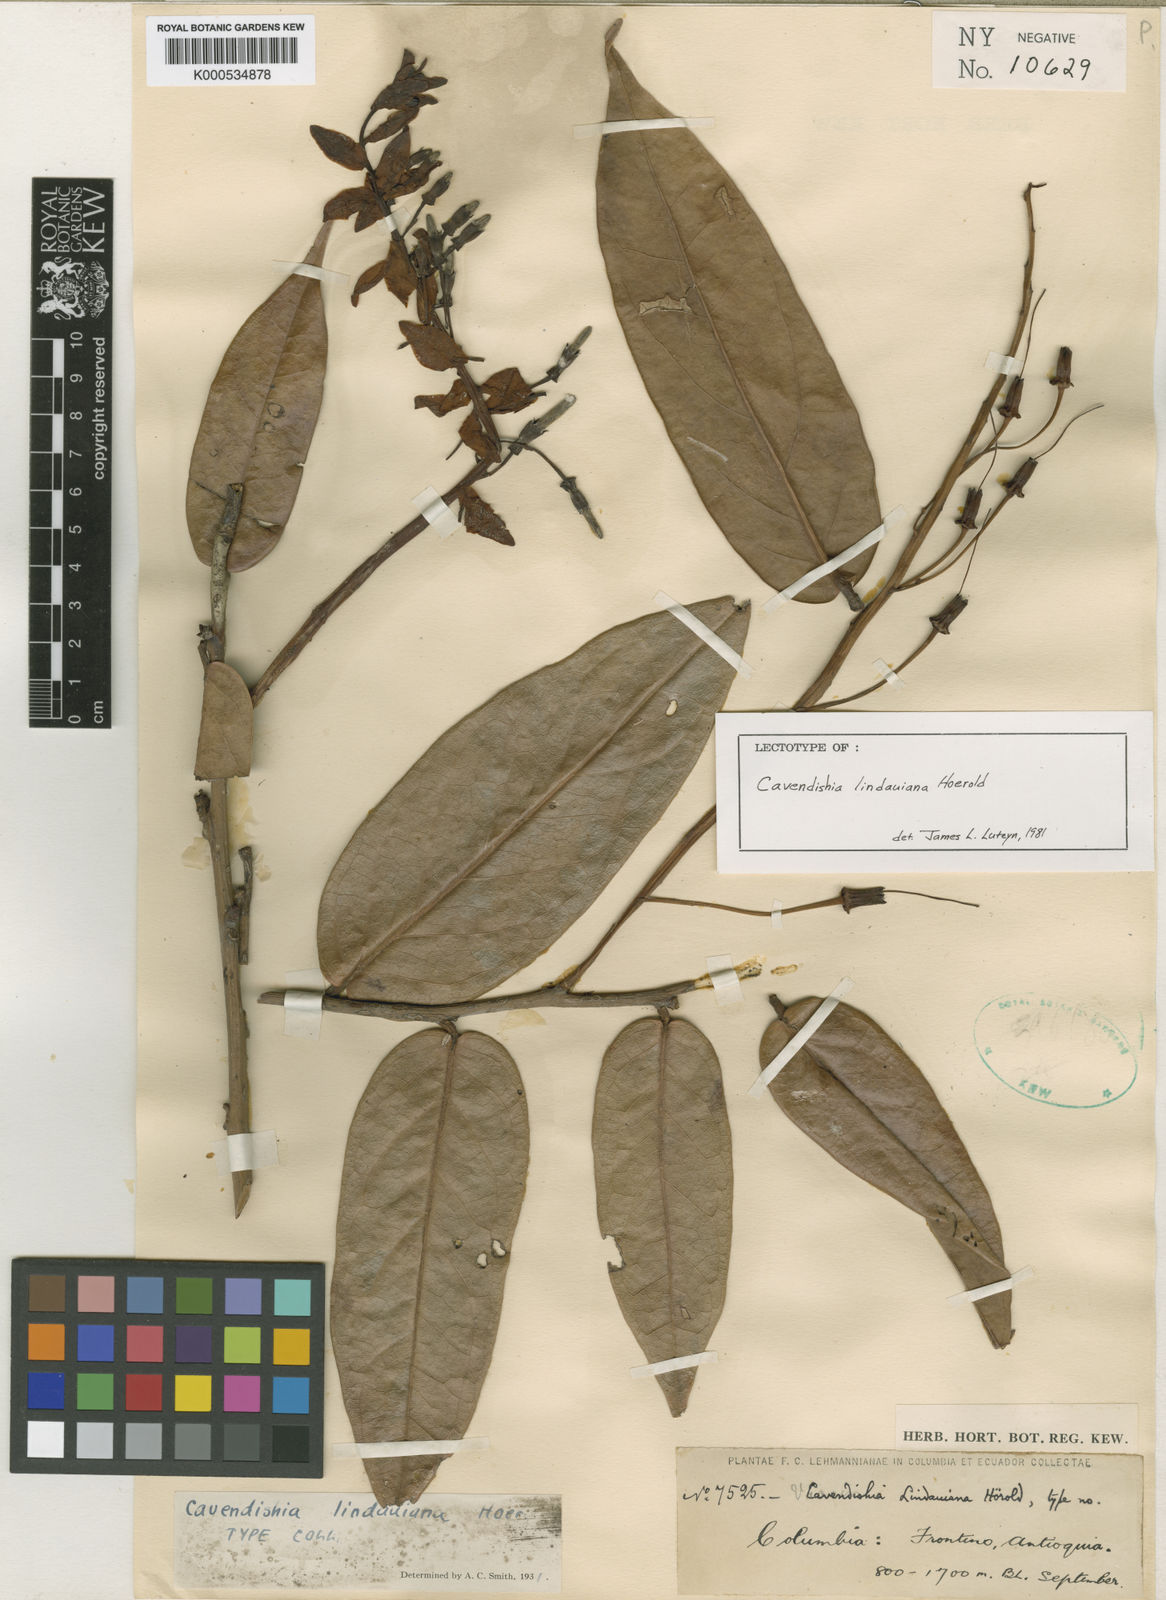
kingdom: Plantae
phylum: Tracheophyta
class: Magnoliopsida
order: Ericales
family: Ericaceae
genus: Cavendishia
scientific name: Cavendishia lindauiana
